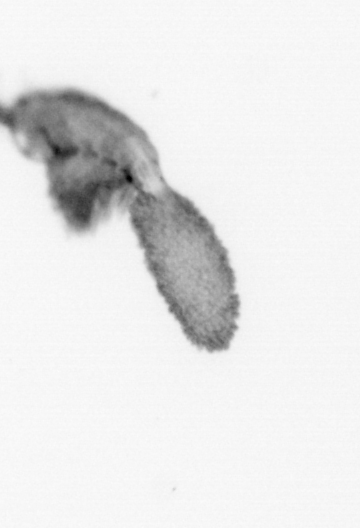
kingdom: Animalia
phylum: Annelida
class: Polychaeta
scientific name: Polychaeta
